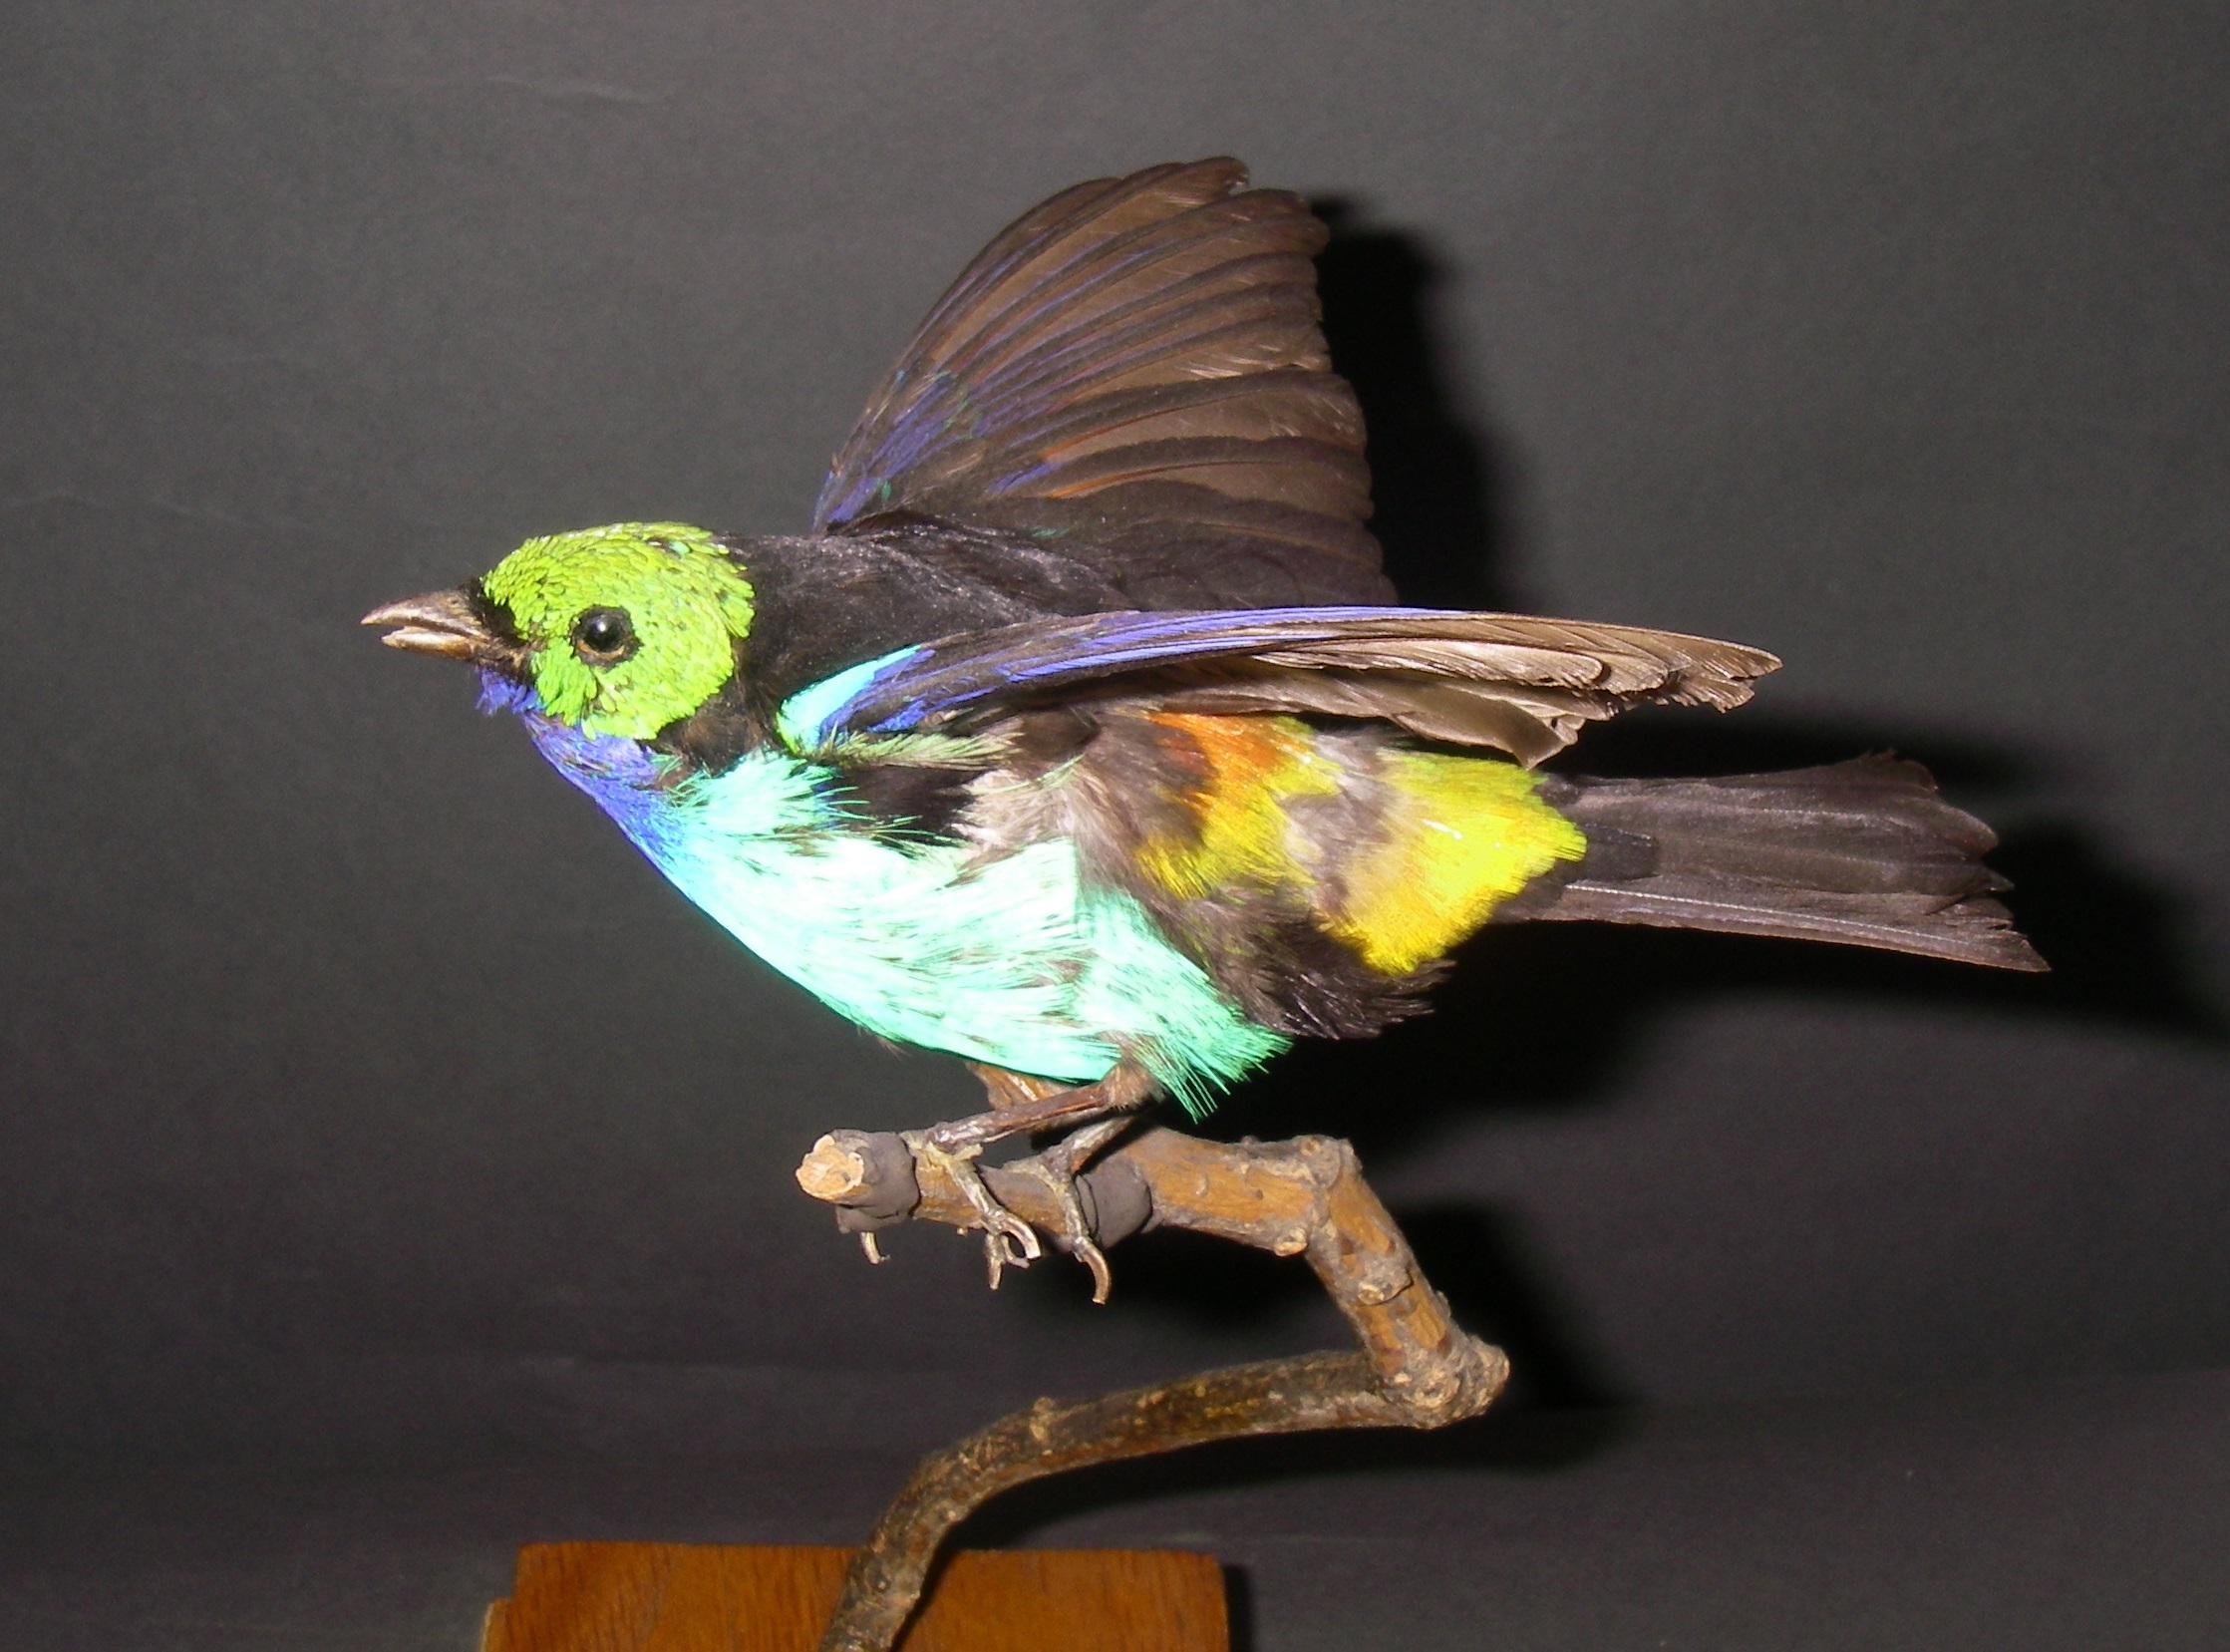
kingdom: Animalia
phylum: Chordata
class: Aves
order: Passeriformes
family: Thraupidae
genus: Tangara
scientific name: Tangara chilensis
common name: Paradise tanager
